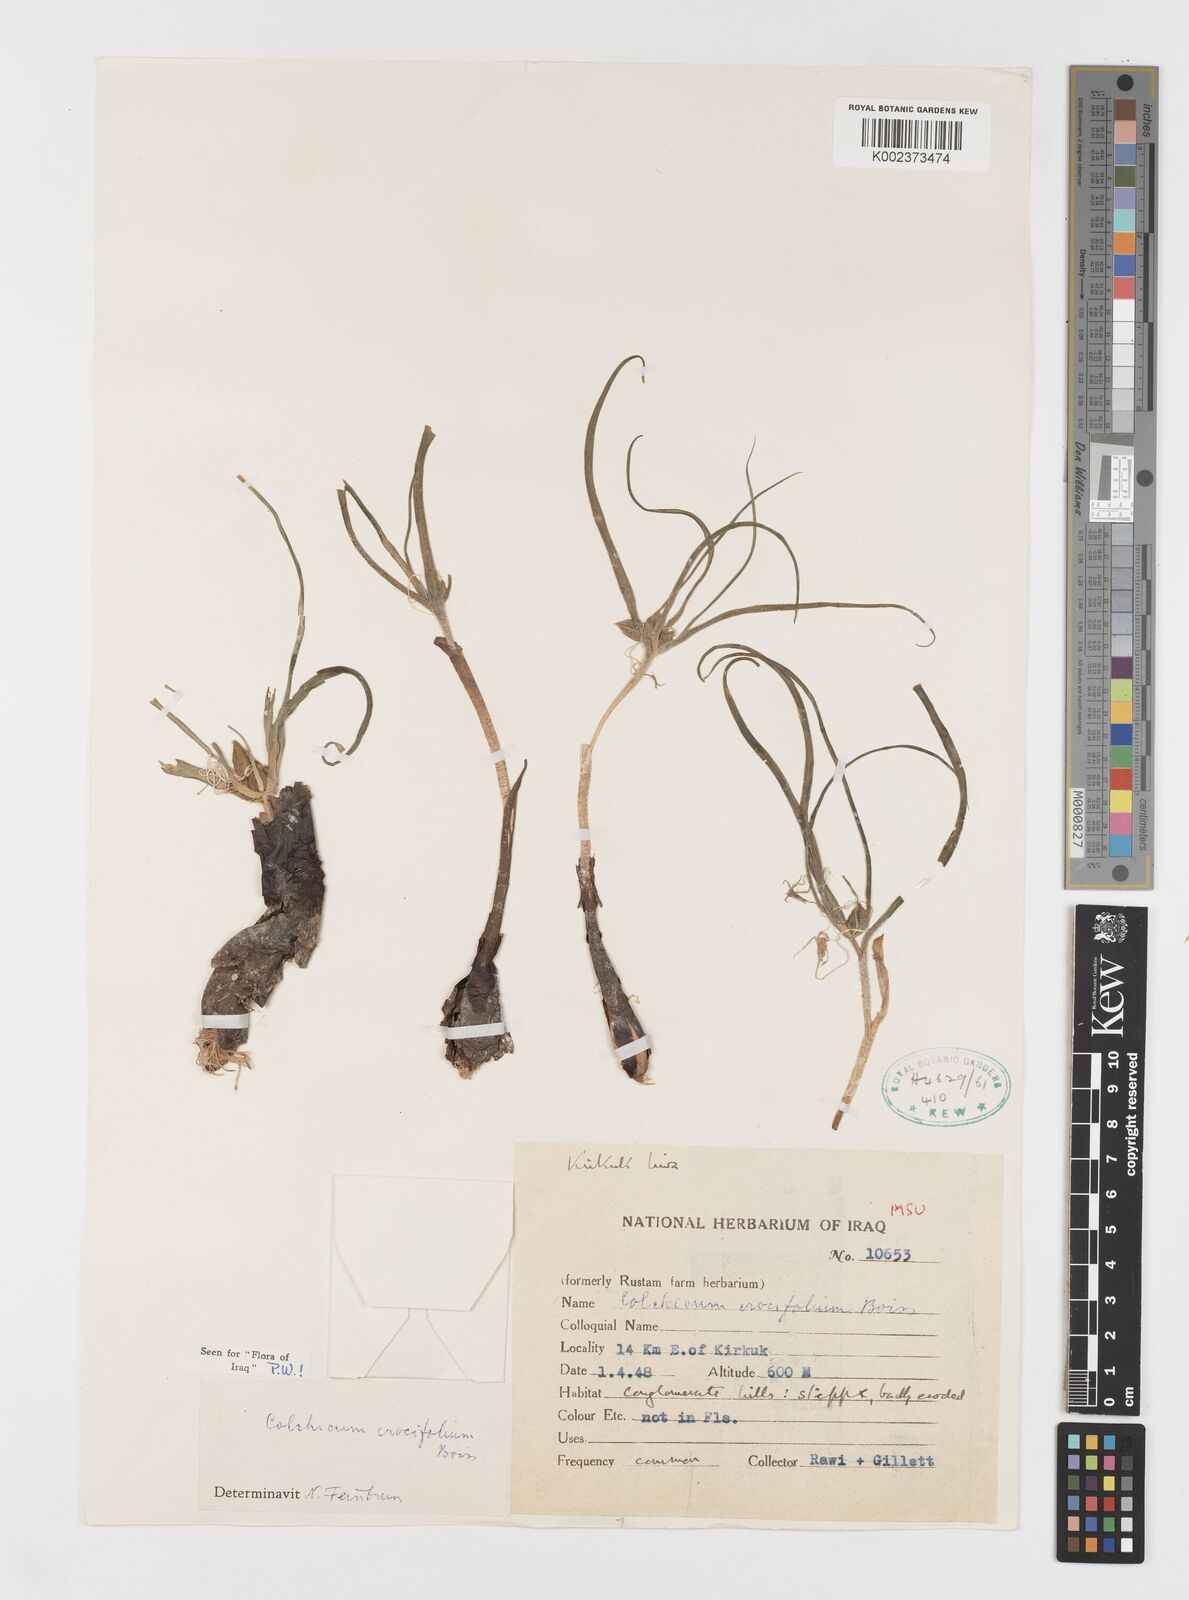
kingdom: Plantae
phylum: Tracheophyta
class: Liliopsida
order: Liliales
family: Colchicaceae
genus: Colchicum
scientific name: Colchicum schimperi
